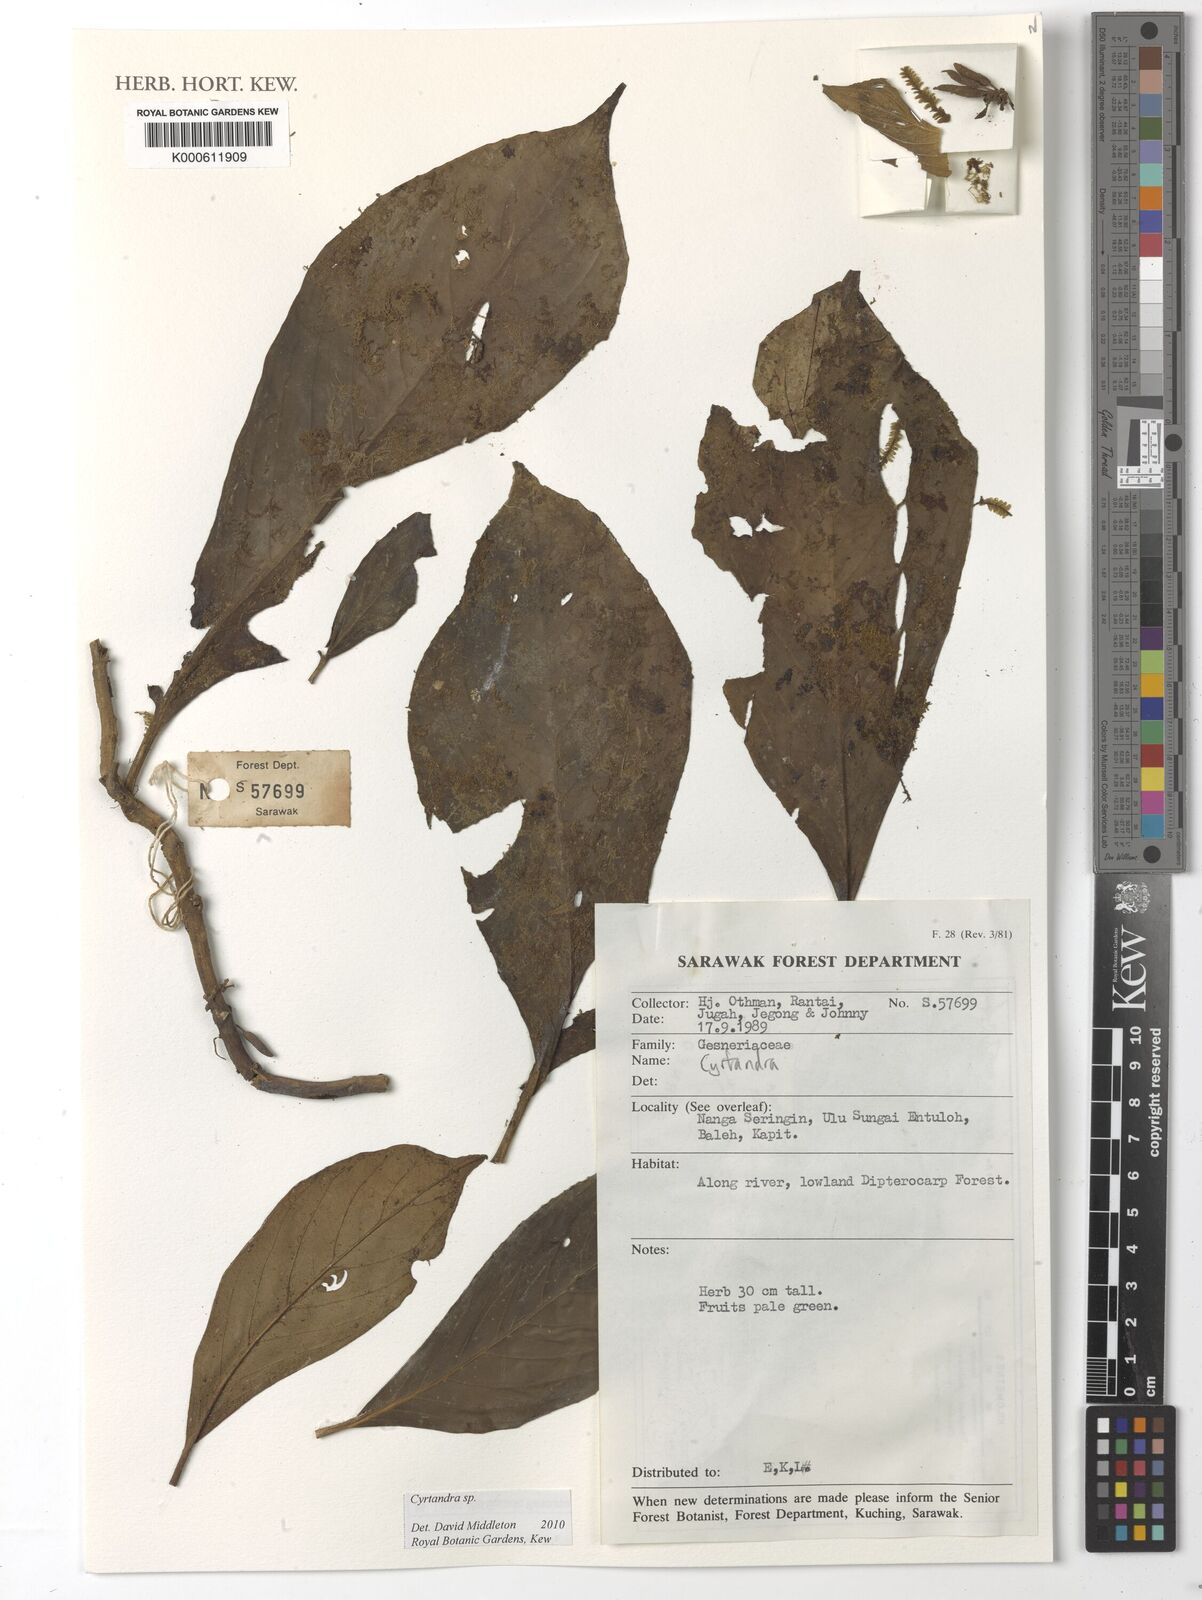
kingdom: Plantae
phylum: Tracheophyta
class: Magnoliopsida
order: Lamiales
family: Gesneriaceae
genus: Cyrtandra
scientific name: Cyrtandra
